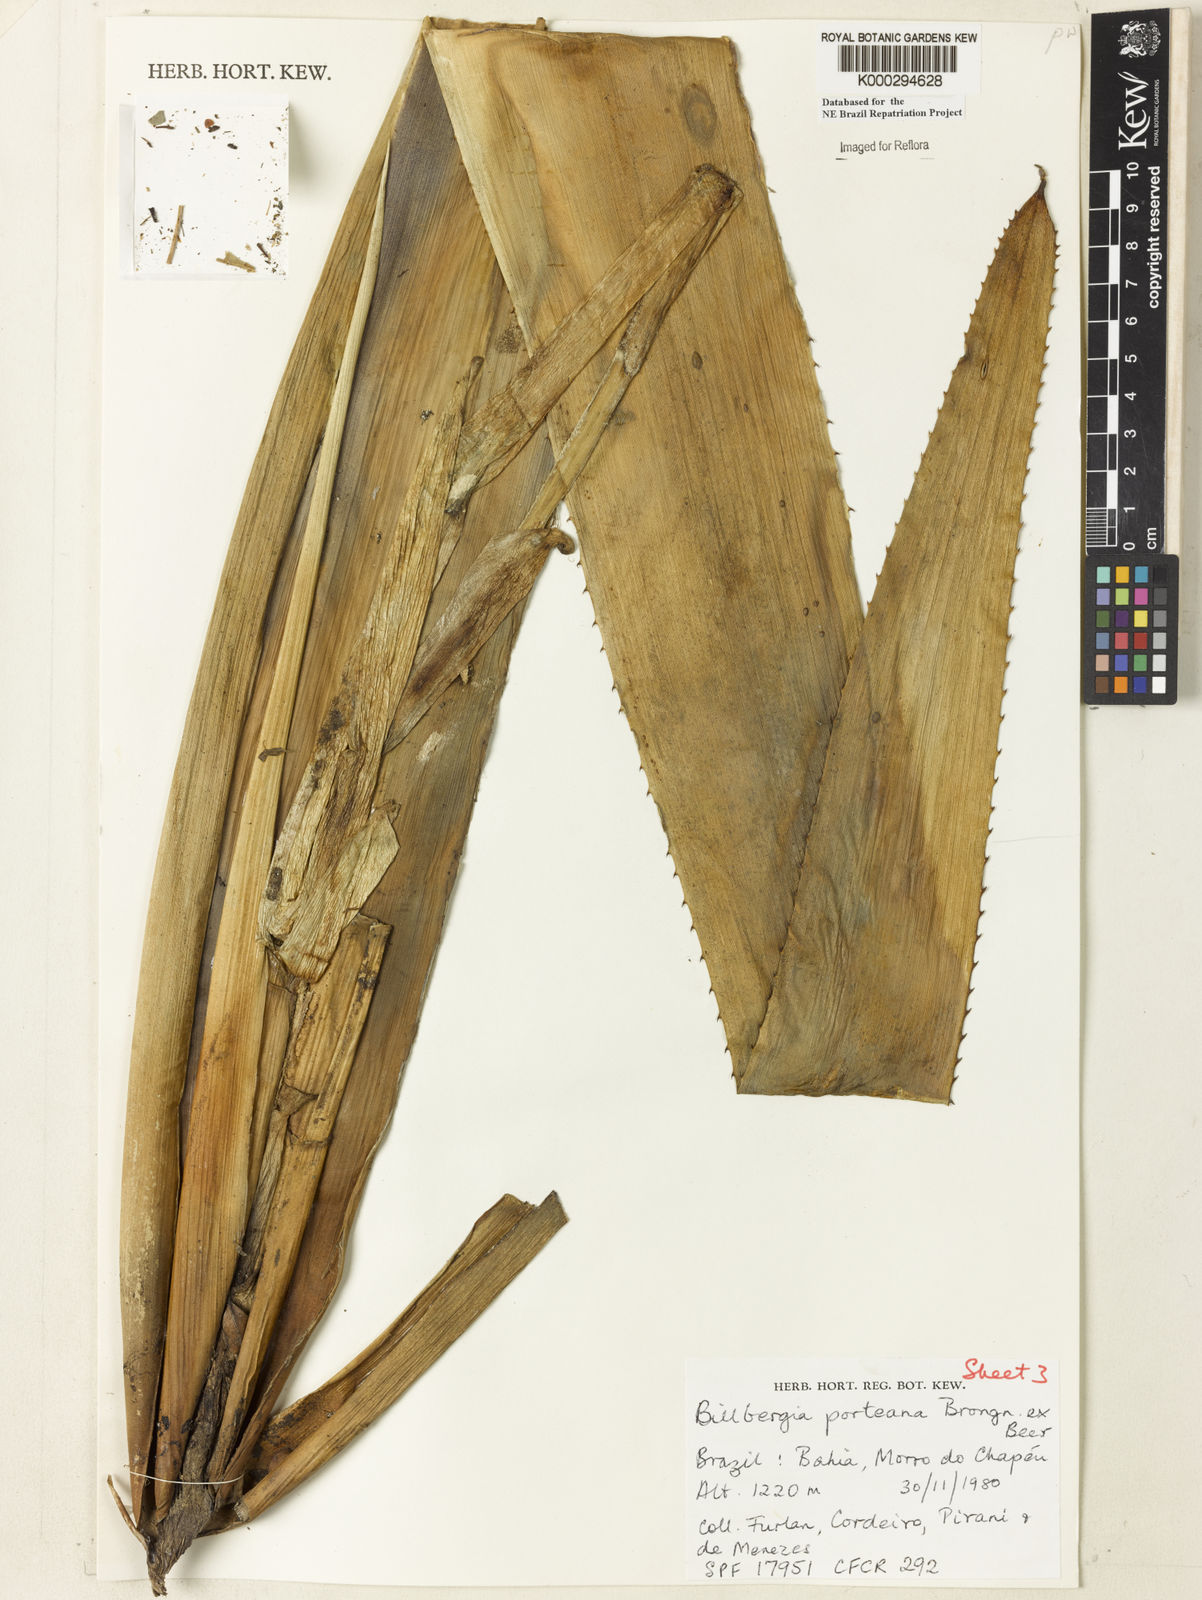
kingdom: Plantae
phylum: Tracheophyta
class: Liliopsida
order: Poales
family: Bromeliaceae
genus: Billbergia
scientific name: Billbergia porteana
